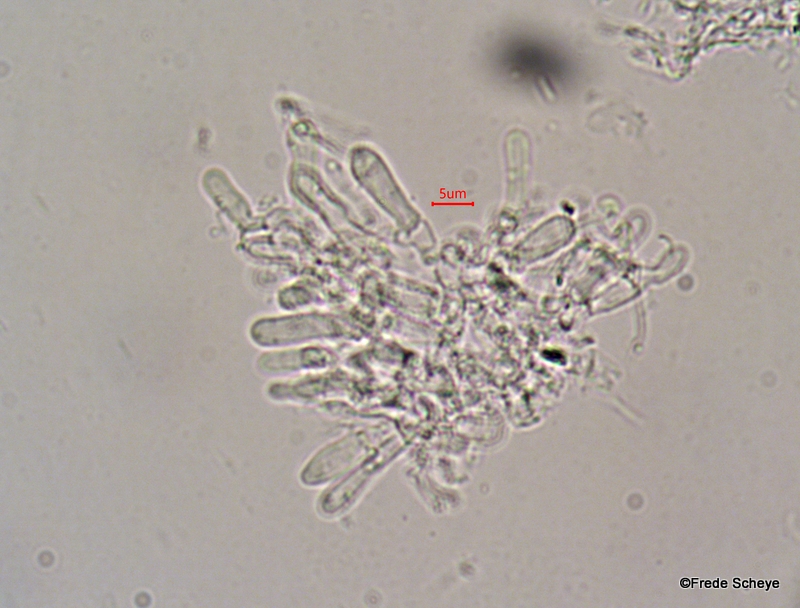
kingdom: Fungi
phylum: Basidiomycota
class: Agaricomycetes
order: Polyporales
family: Irpicaceae
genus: Vitreoporus
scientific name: Vitreoporus dichrous
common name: tofarvet foldporesvamp
